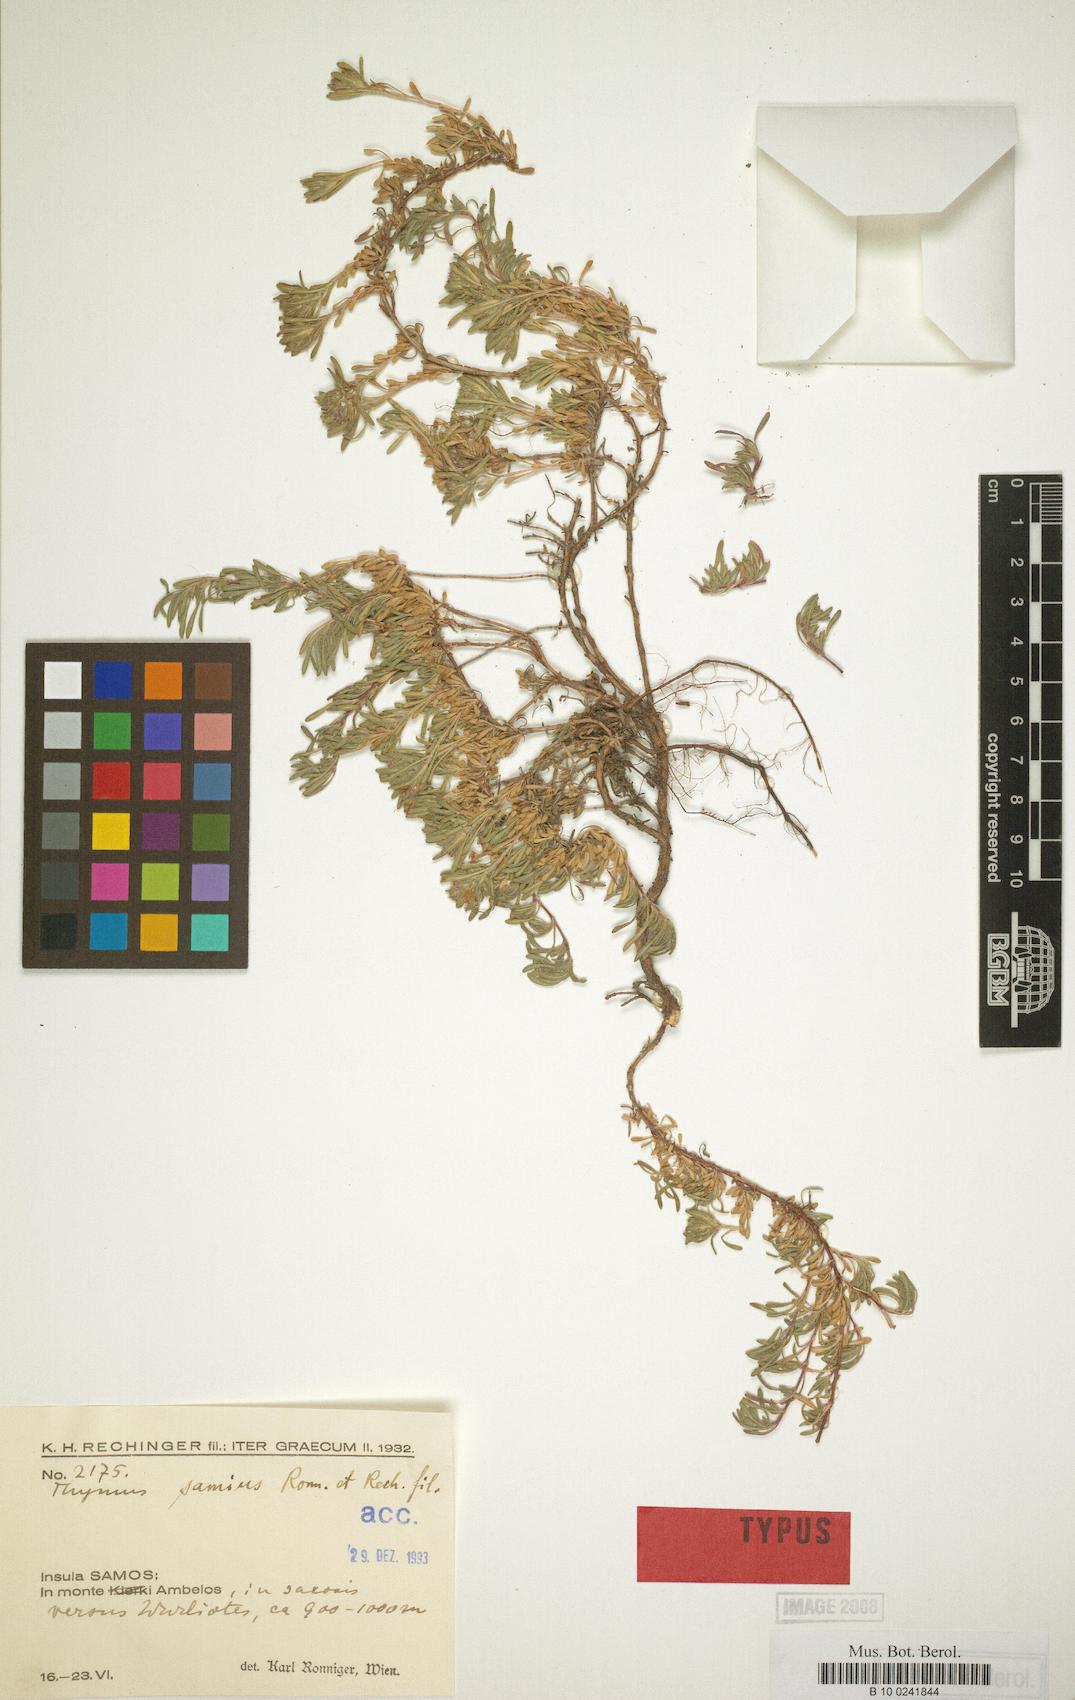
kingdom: Plantae
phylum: Tracheophyta
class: Magnoliopsida
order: Lamiales
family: Lamiaceae
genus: Thymus
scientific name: Thymus samius
